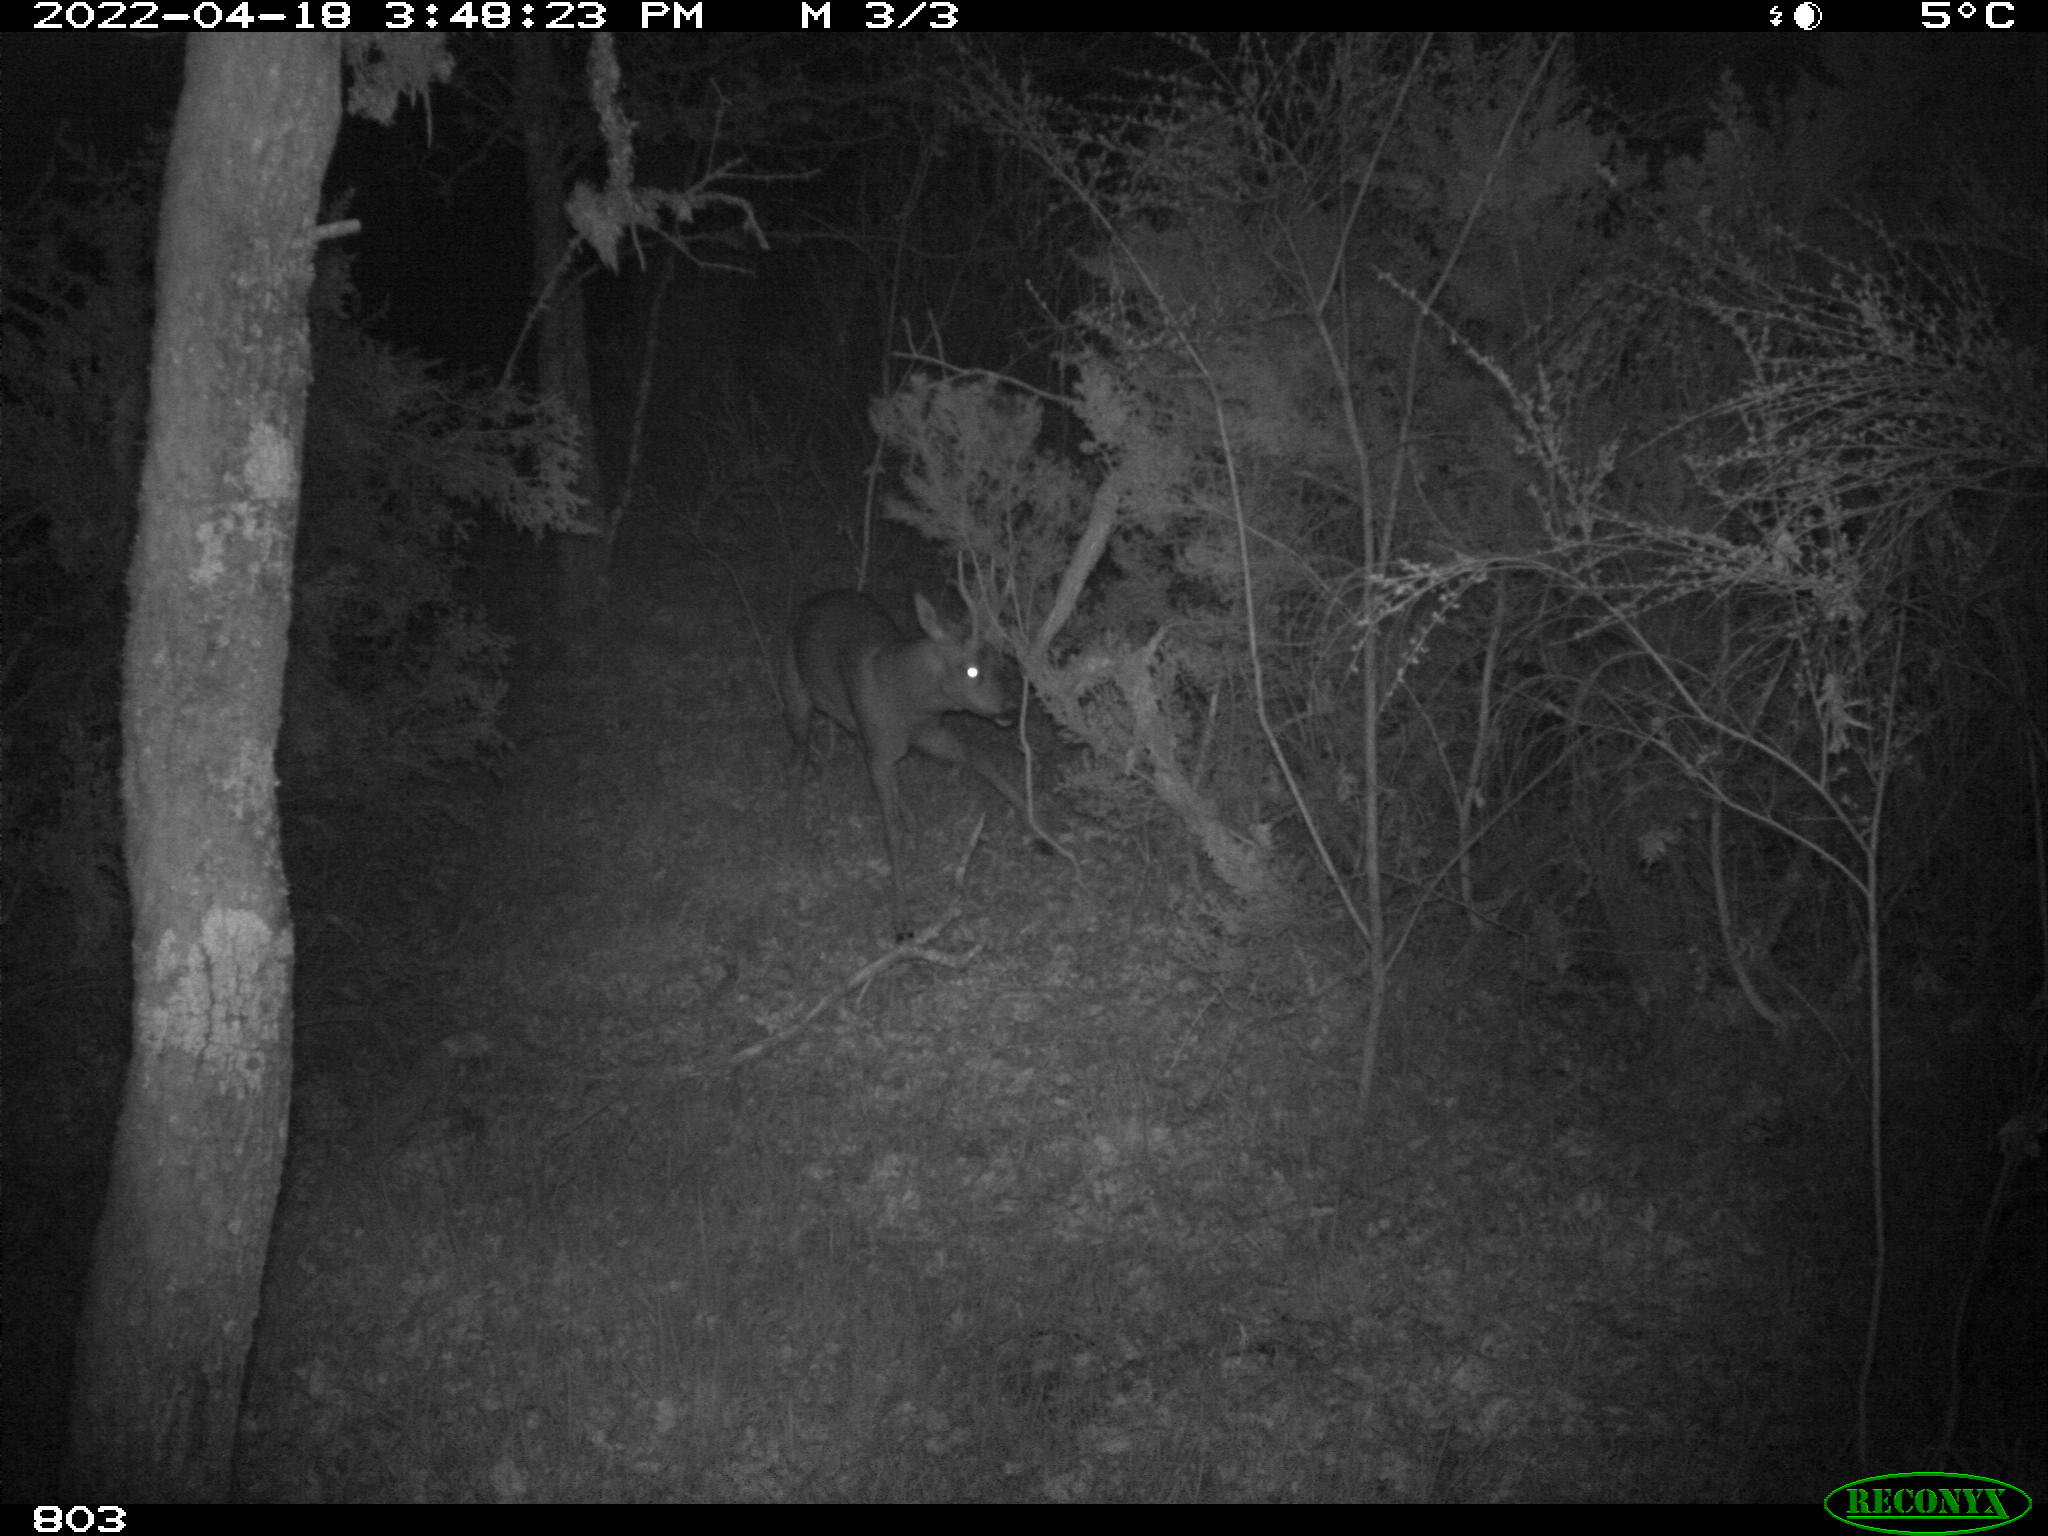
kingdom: Animalia
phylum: Chordata
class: Mammalia
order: Artiodactyla
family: Cervidae
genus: Capreolus
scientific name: Capreolus capreolus
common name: Western roe deer
